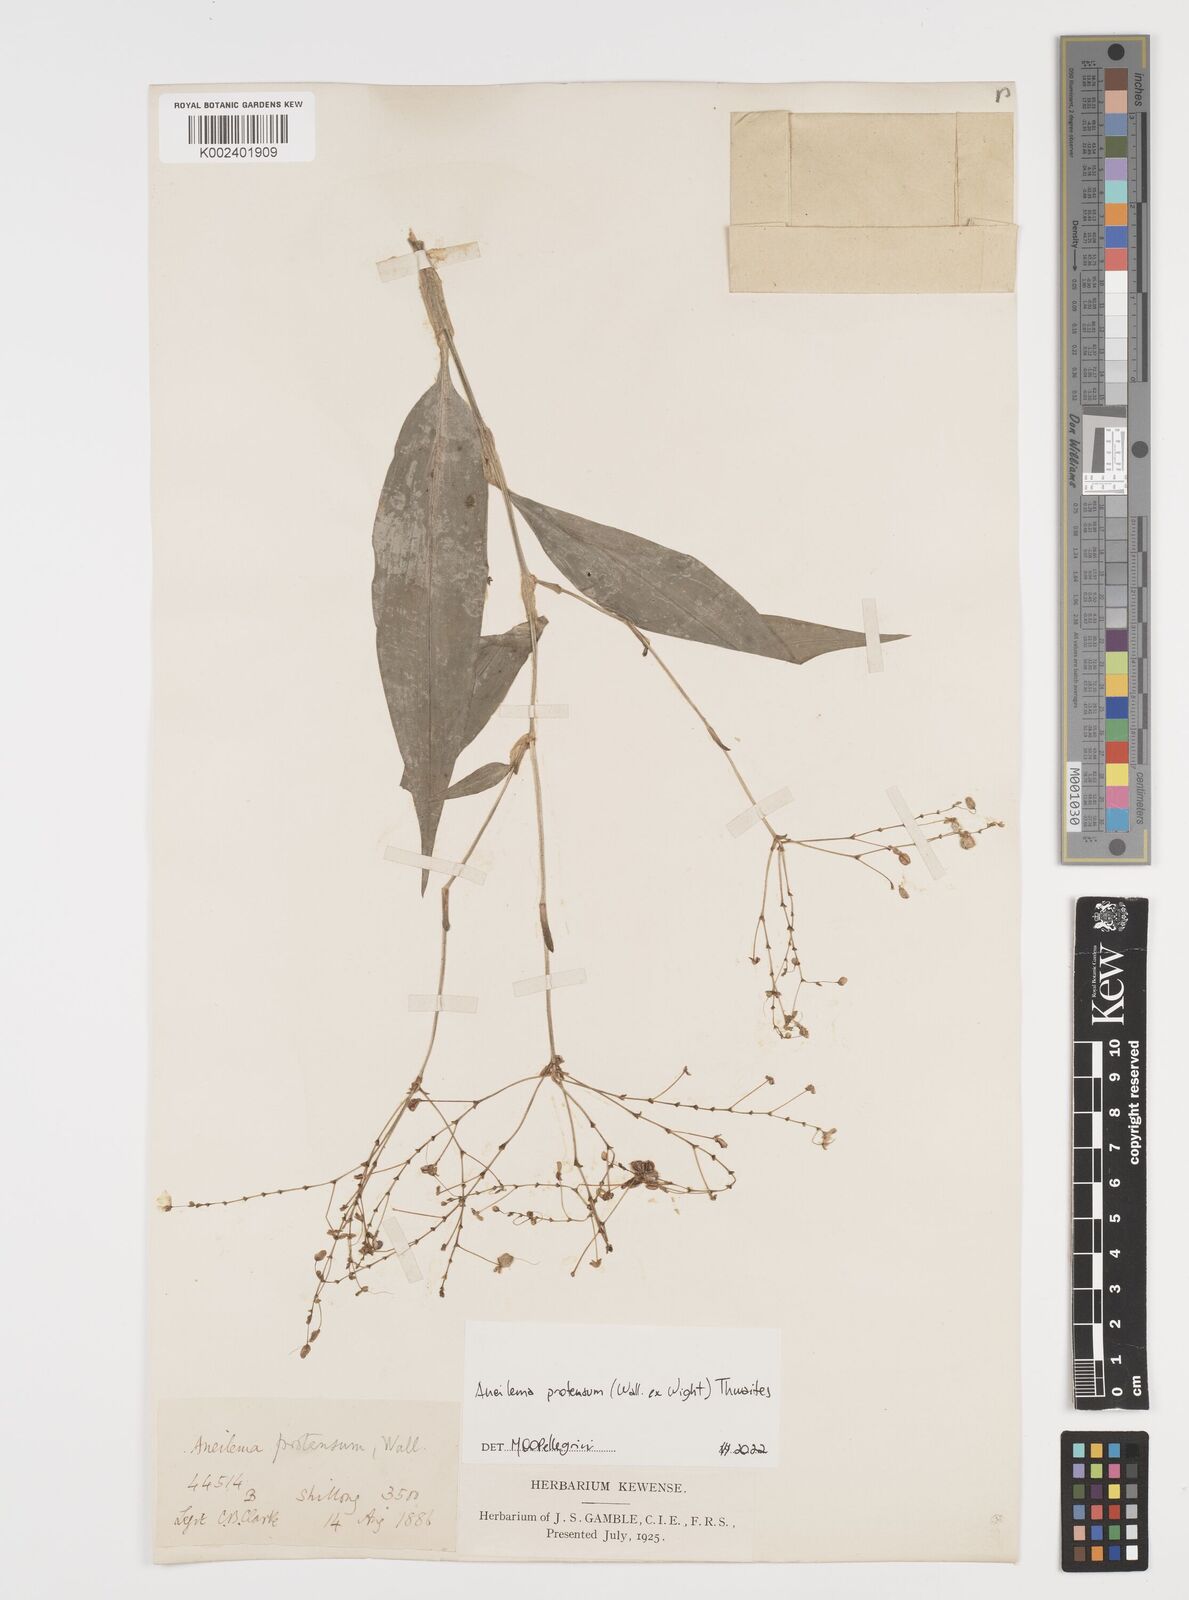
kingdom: Plantae
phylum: Tracheophyta
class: Liliopsida
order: Commelinales
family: Commelinaceae
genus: Rhopalephora
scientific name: Rhopalephora
